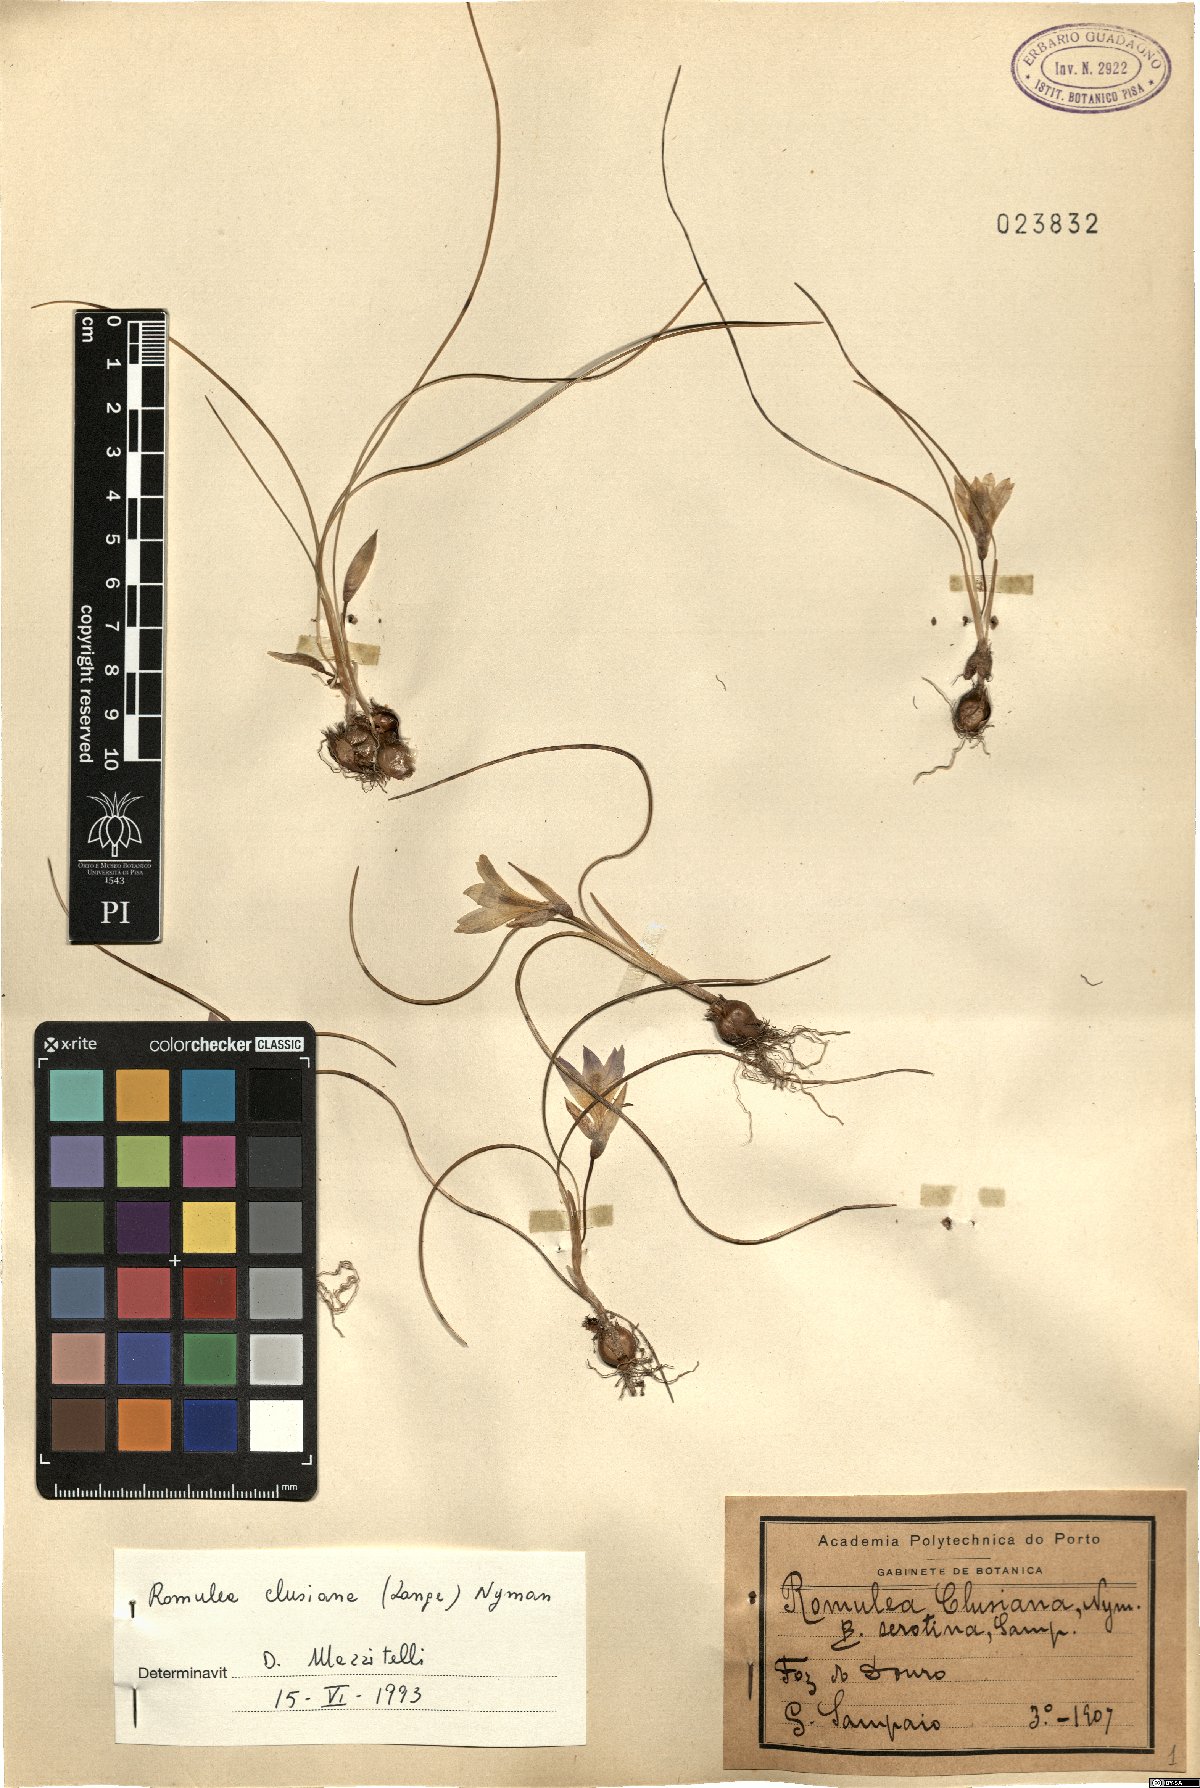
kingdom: Plantae
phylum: Tracheophyta
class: Liliopsida
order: Asparagales
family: Iridaceae
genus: Romulea
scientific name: Romulea clusiana
